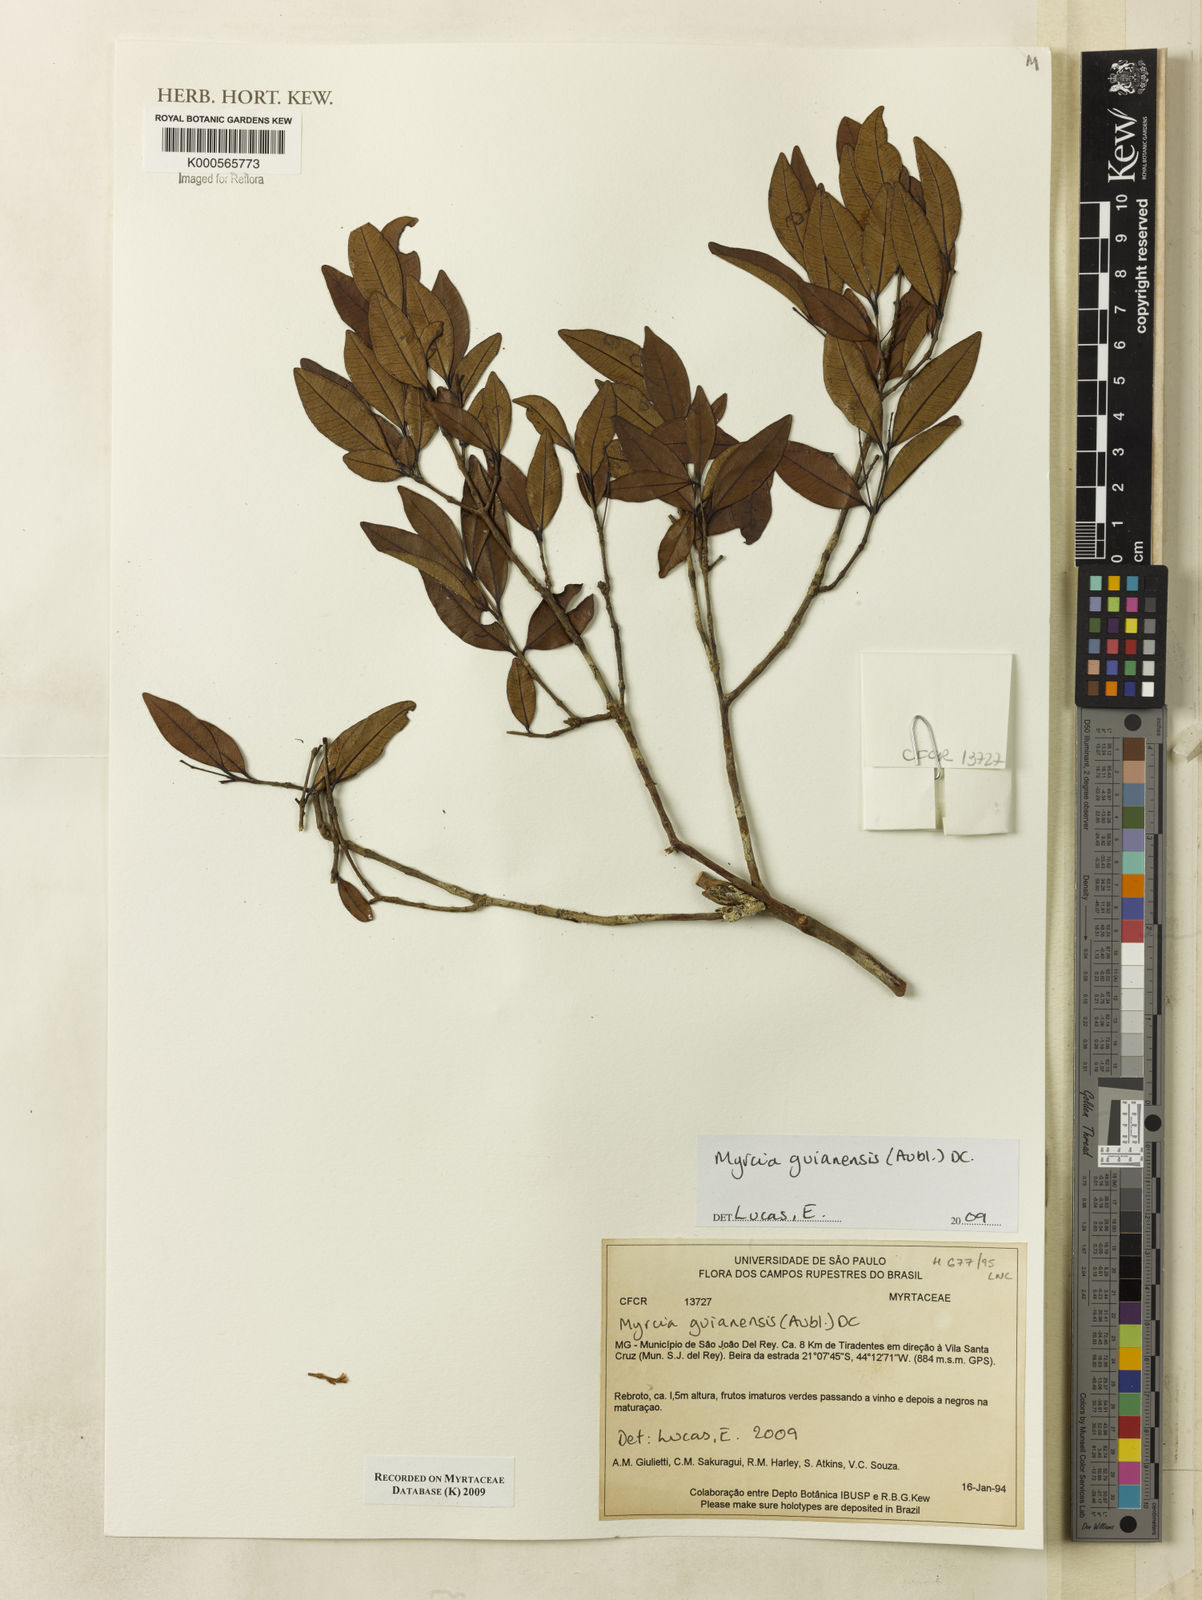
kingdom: Plantae
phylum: Tracheophyta
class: Magnoliopsida
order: Myrtales
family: Myrtaceae
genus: Myrcia
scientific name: Myrcia guianensis
